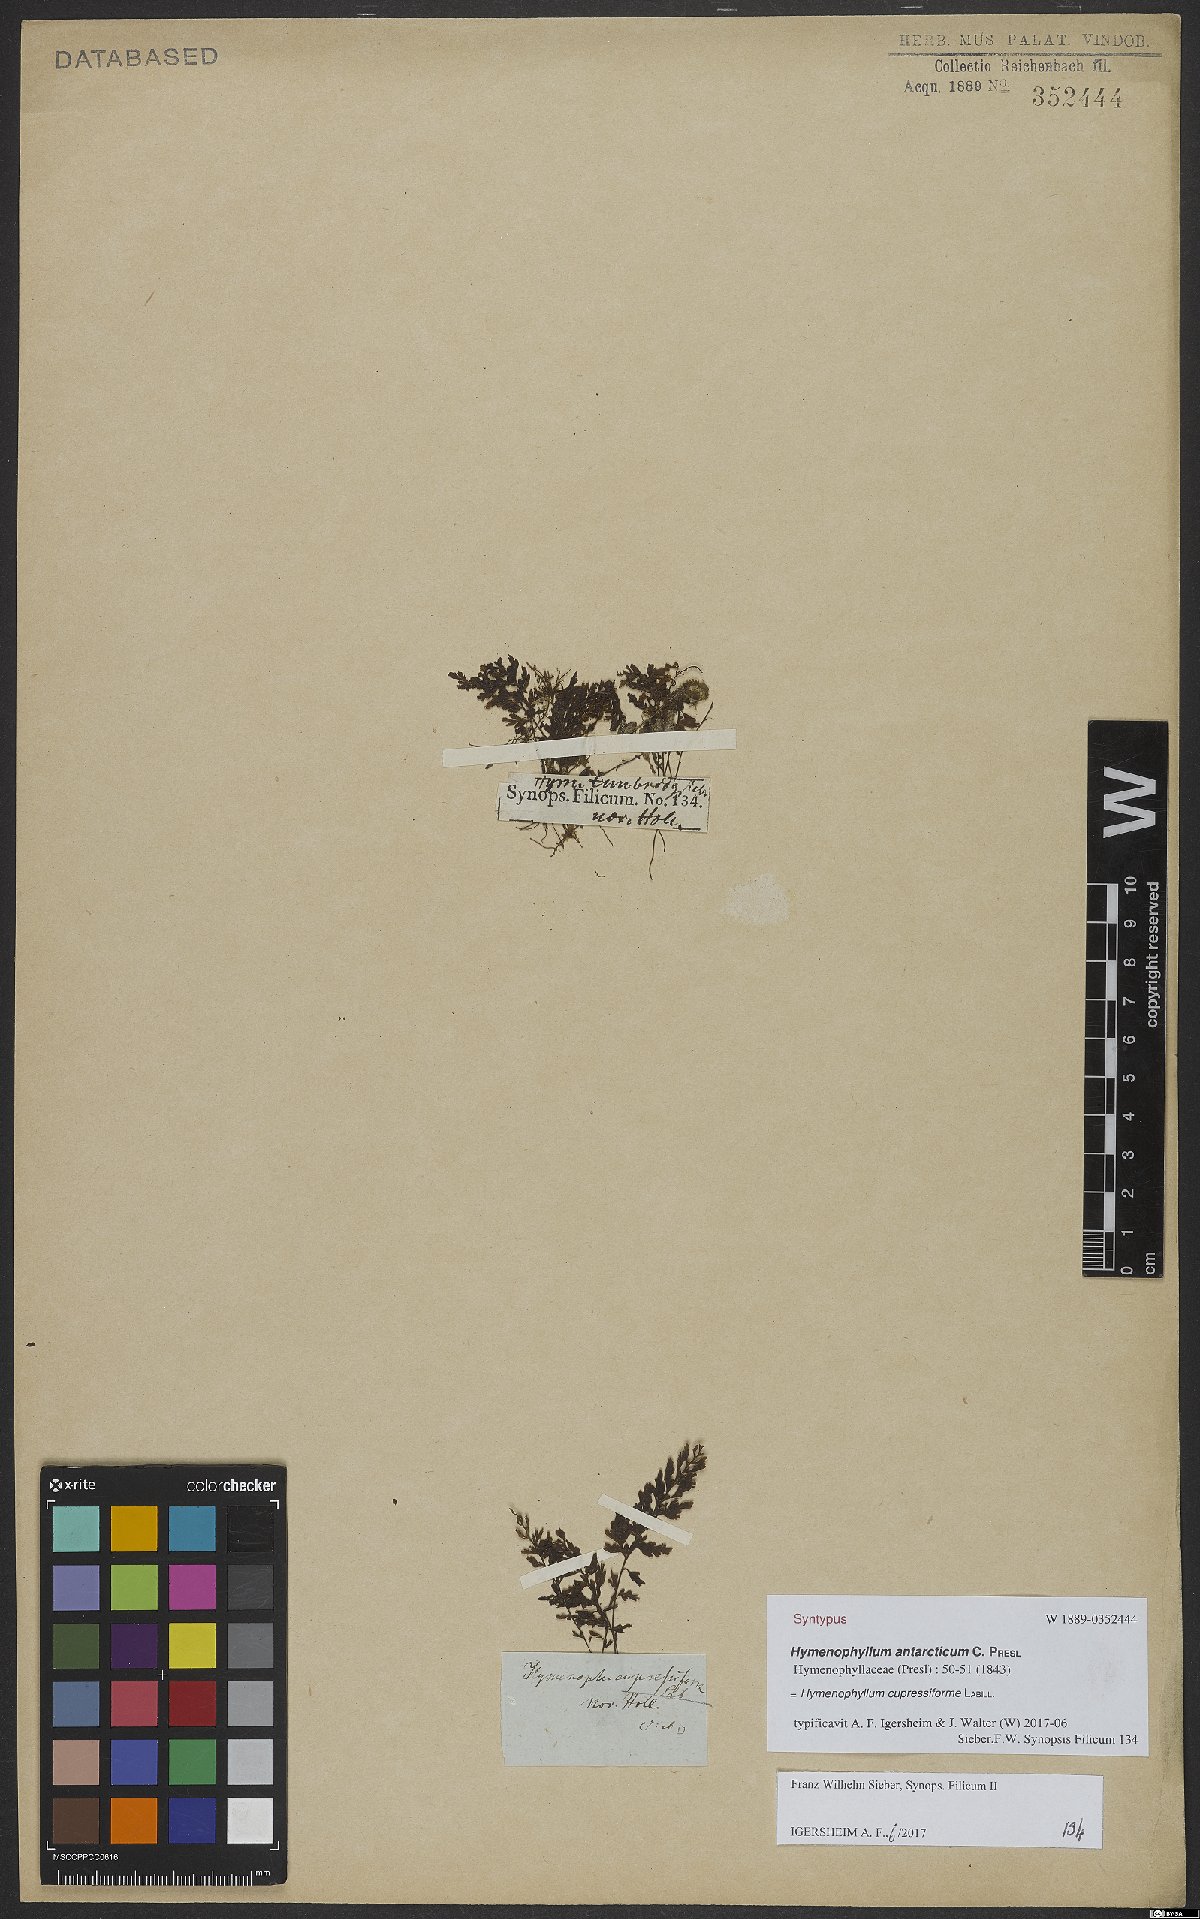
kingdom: Plantae
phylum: Tracheophyta
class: Polypodiopsida
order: Hymenophyllales
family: Hymenophyllaceae
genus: Hymenophyllum
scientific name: Hymenophyllum cupressiforme
